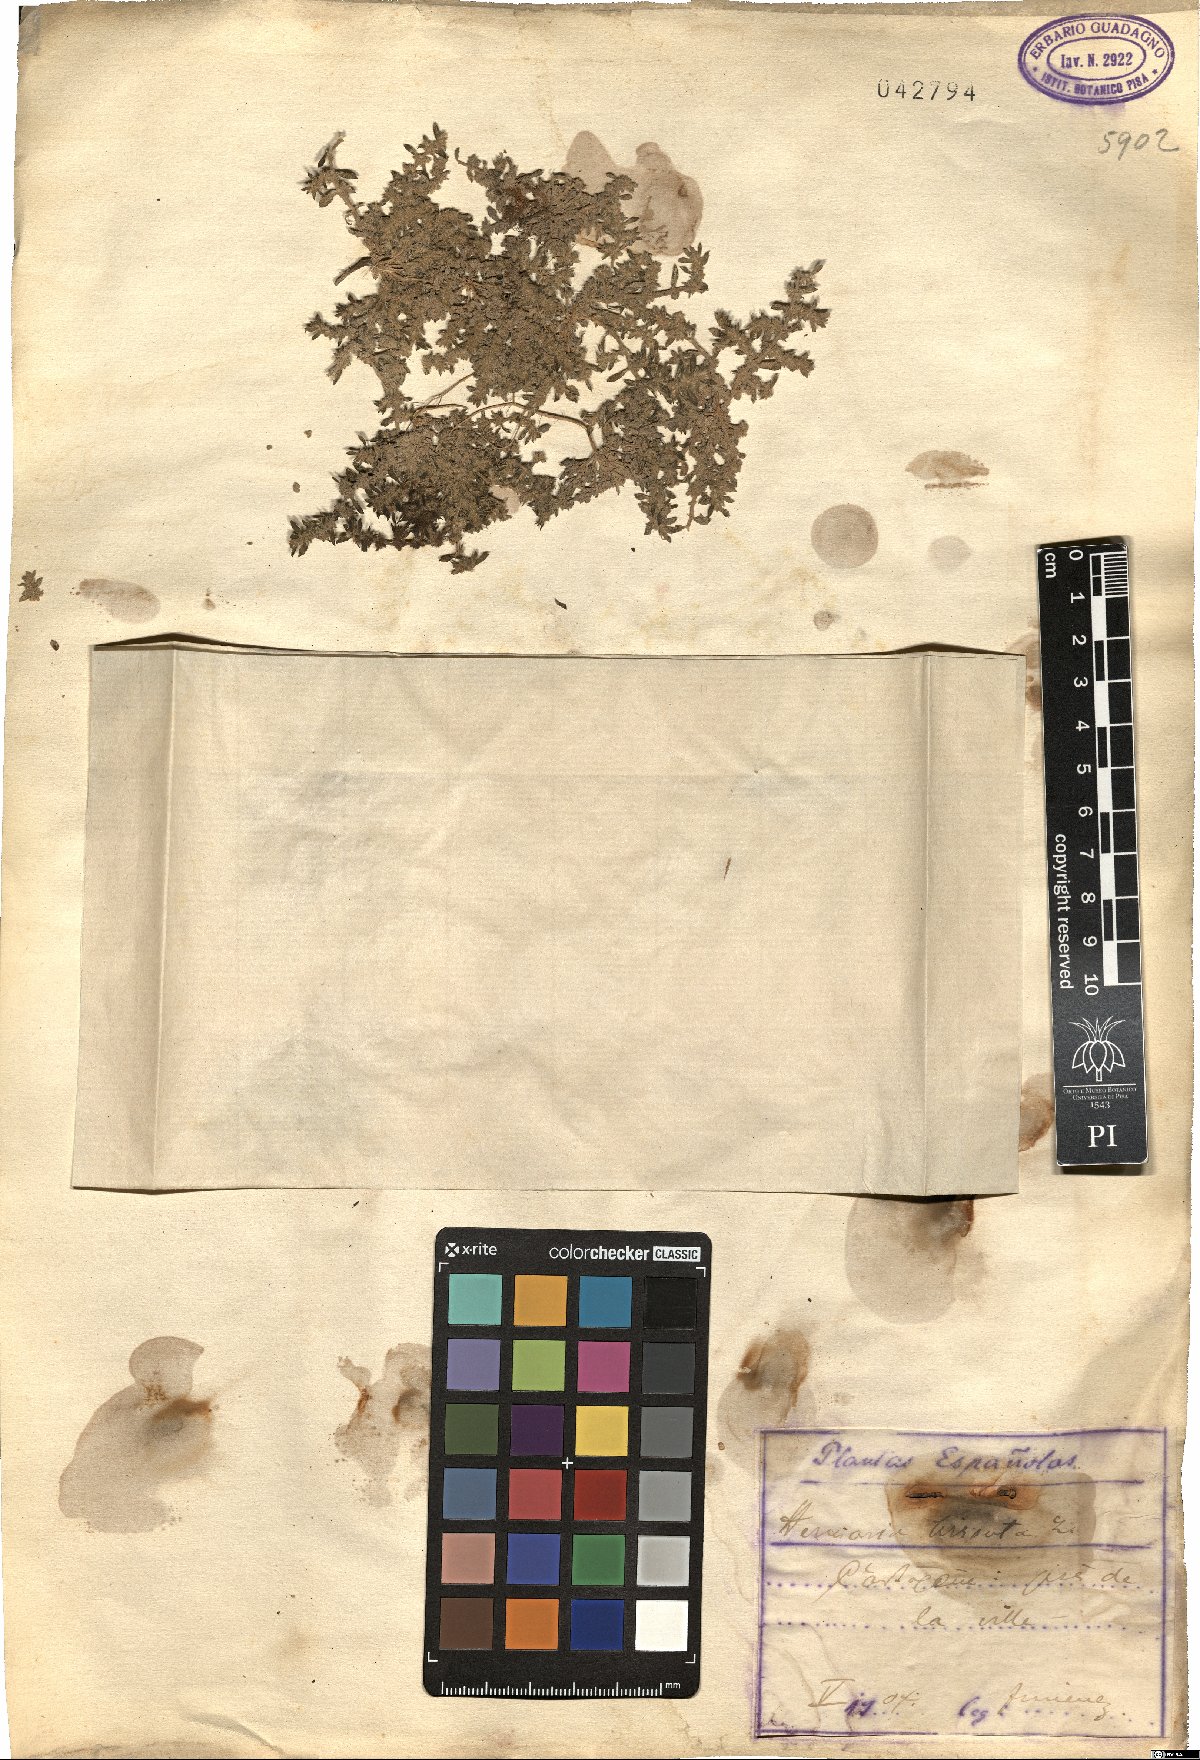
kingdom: Plantae
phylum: Tracheophyta
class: Magnoliopsida
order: Caryophyllales
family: Caryophyllaceae
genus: Herniaria
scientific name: Herniaria hirsuta
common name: Hairy rupturewort
